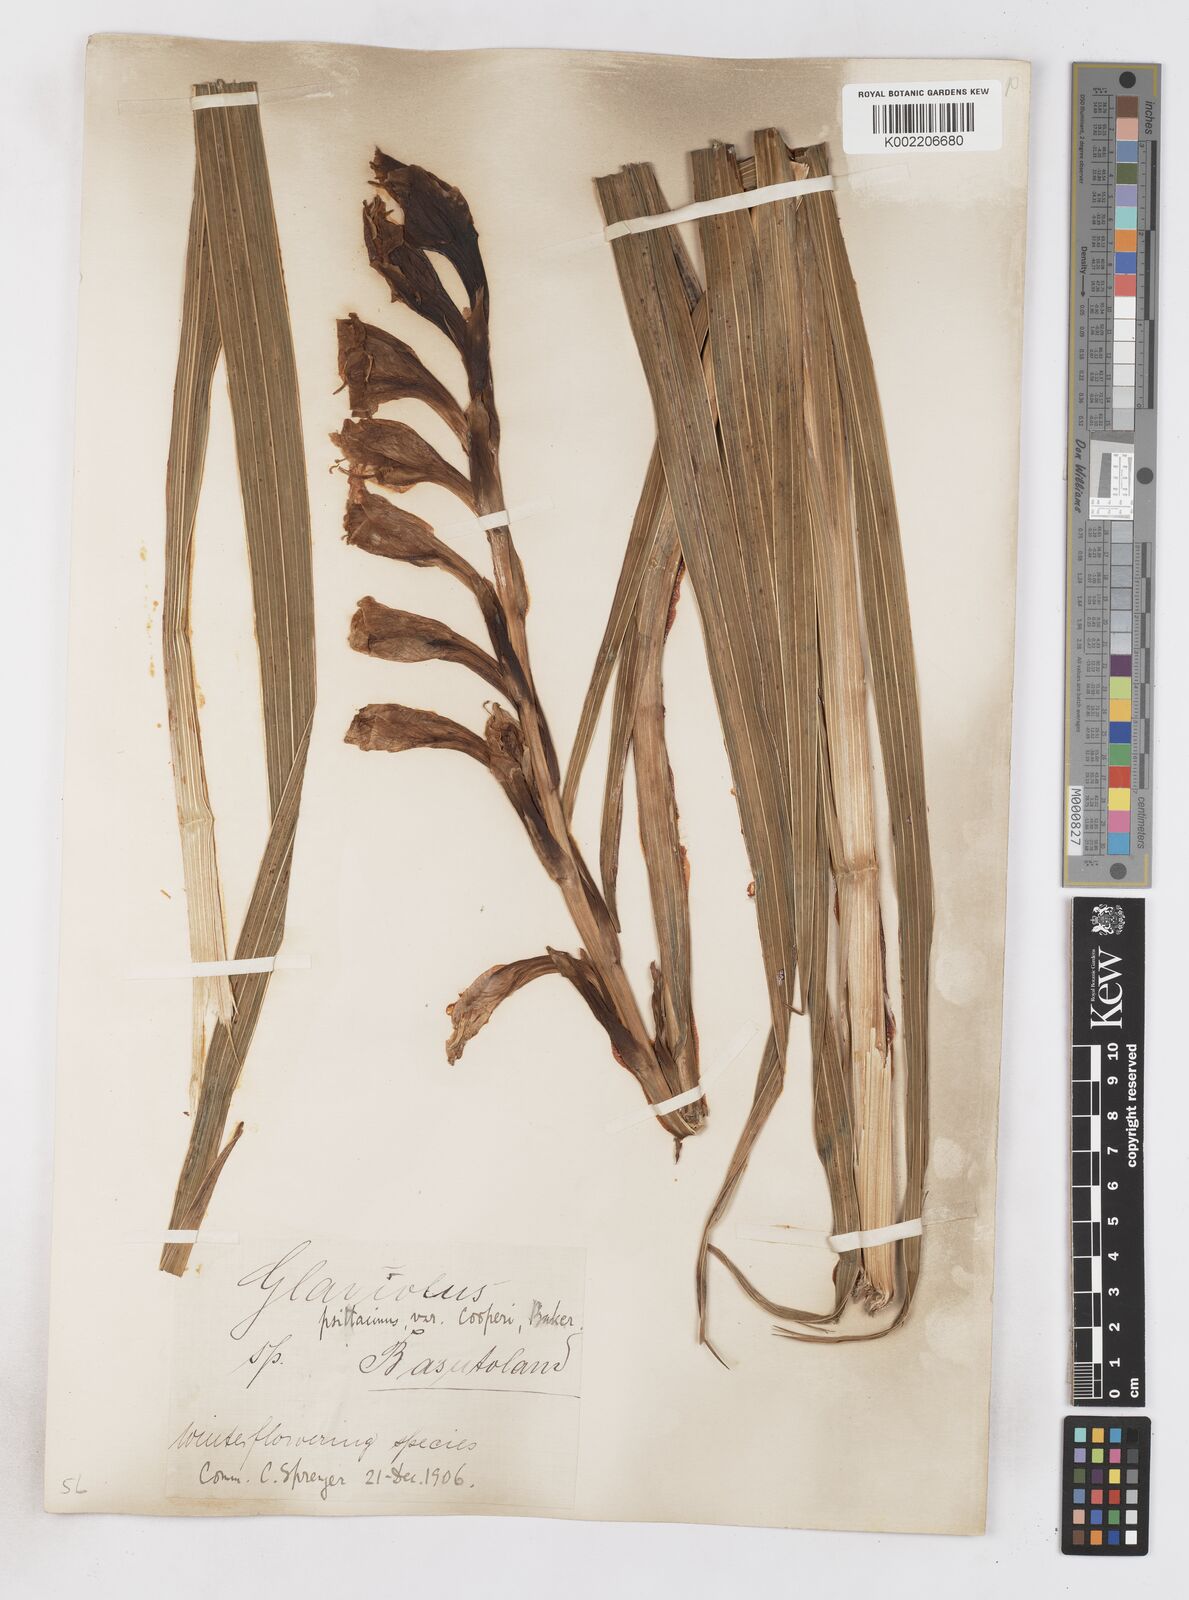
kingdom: Plantae
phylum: Tracheophyta
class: Liliopsida
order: Asparagales
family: Iridaceae
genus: Gladiolus
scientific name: Gladiolus dalenii
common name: Cornflag
